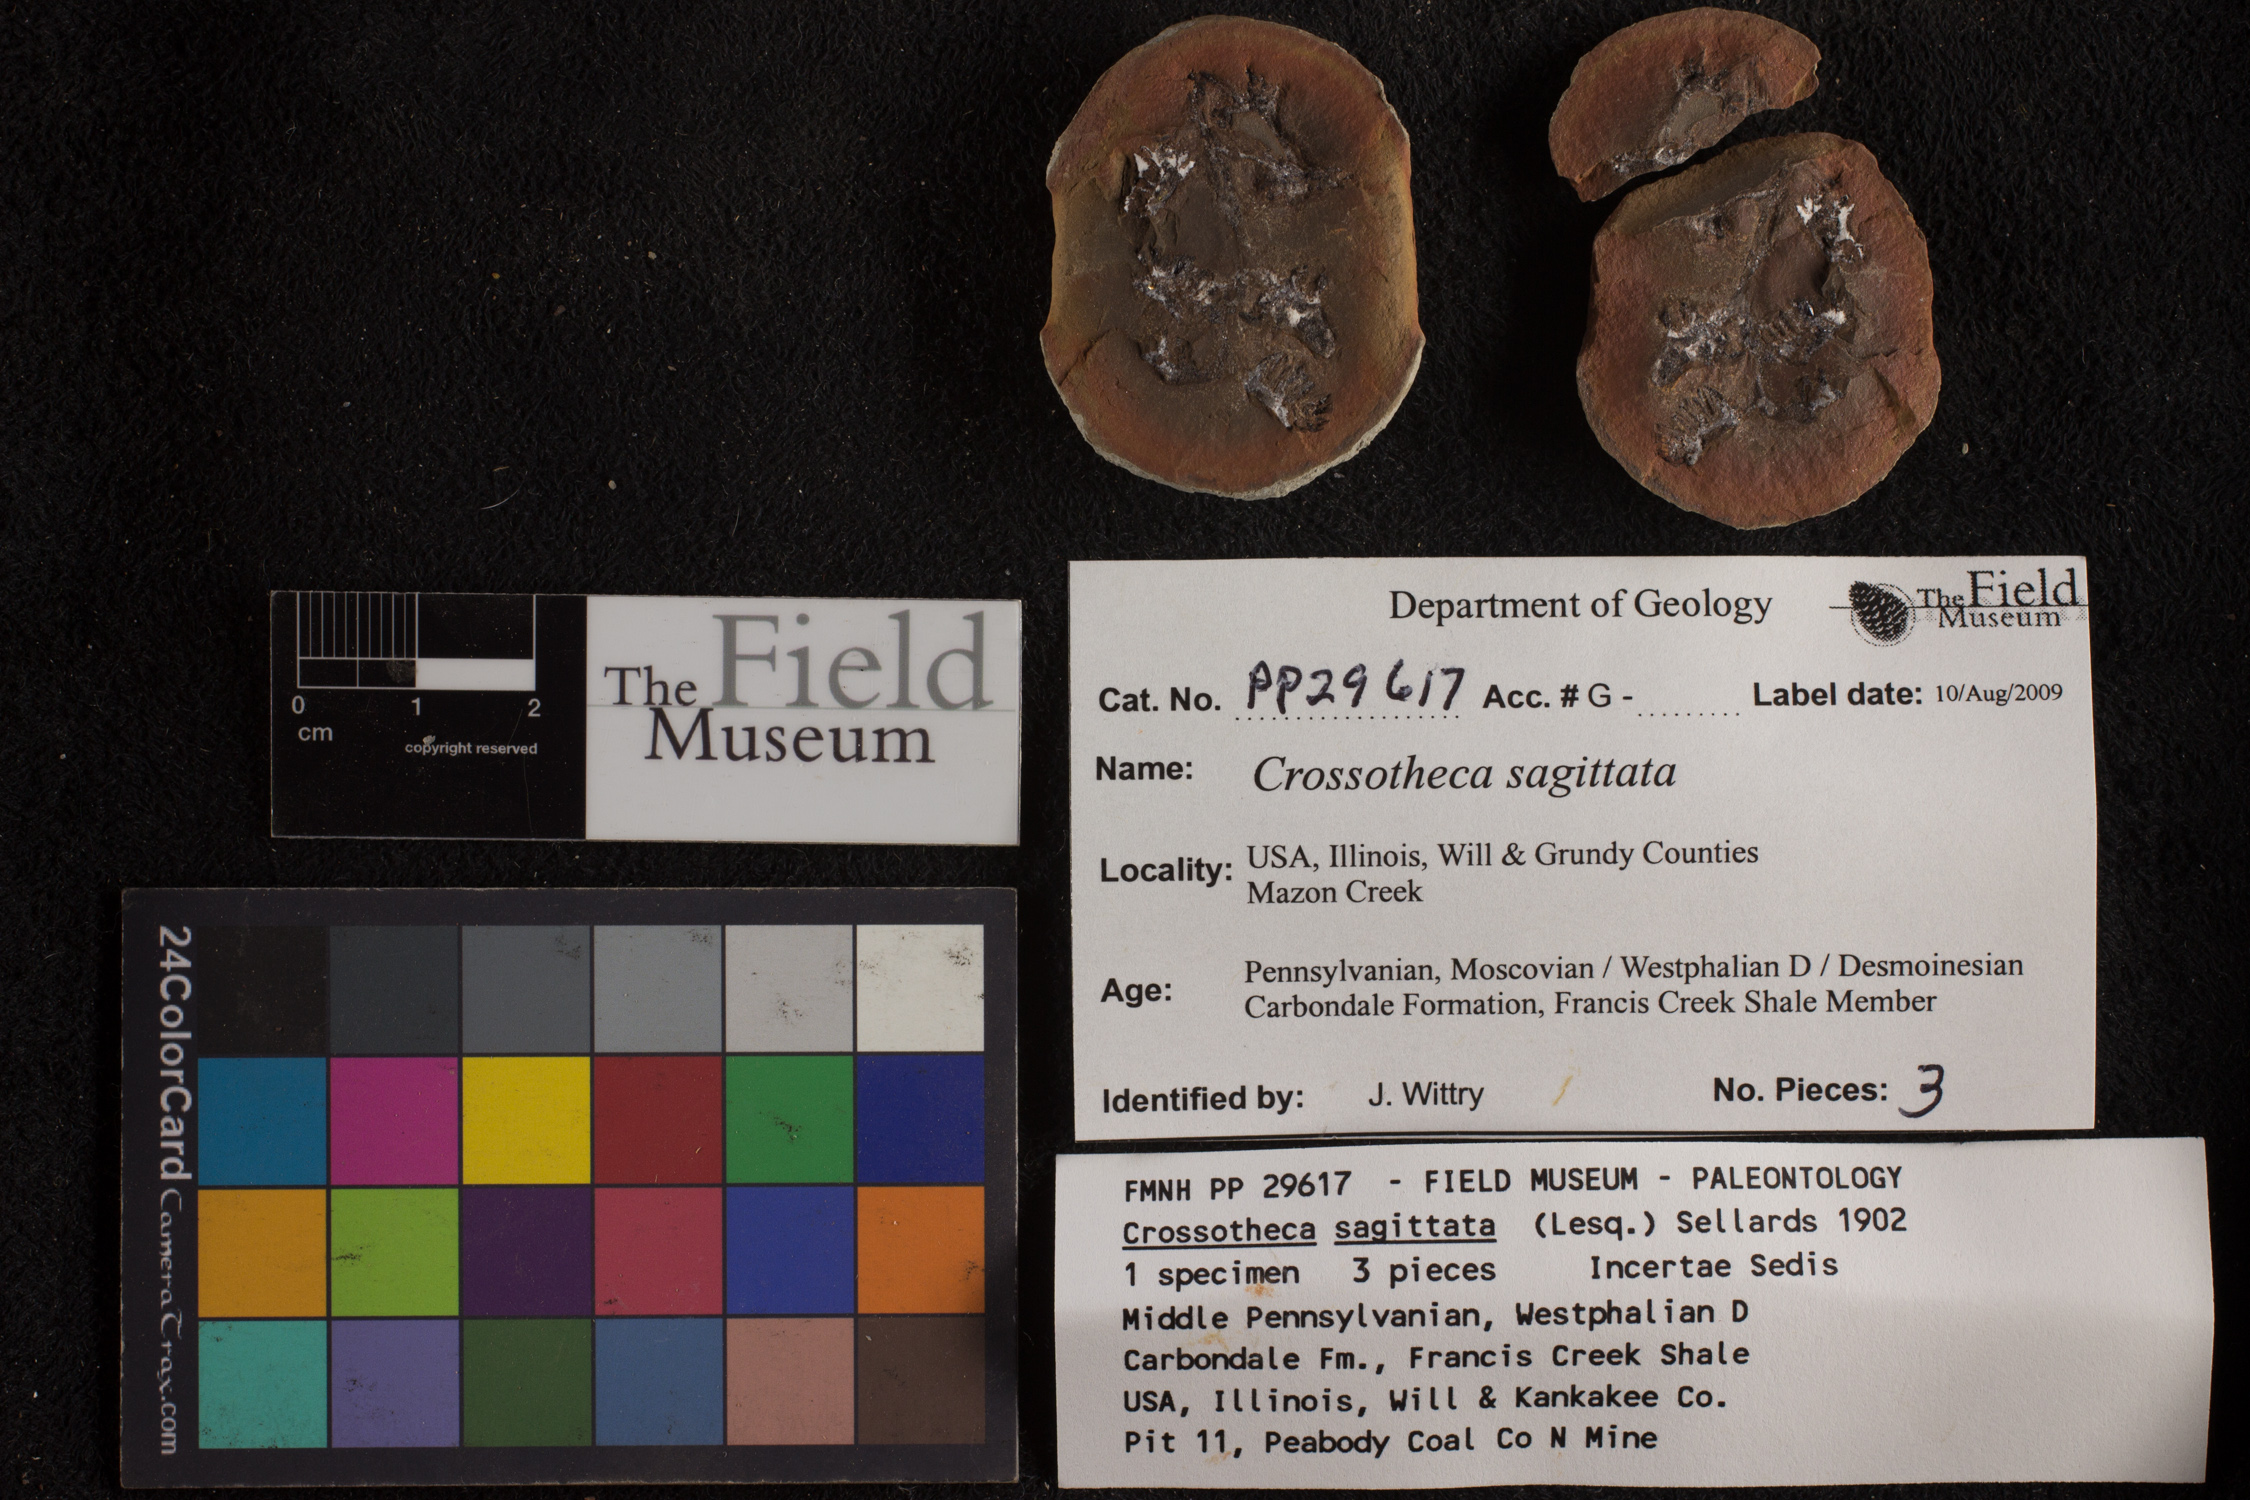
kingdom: Plantae
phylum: Tracheophyta
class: Polypodiopsida
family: Stauropteridaceae
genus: Crossotheca
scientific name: Crossotheca
